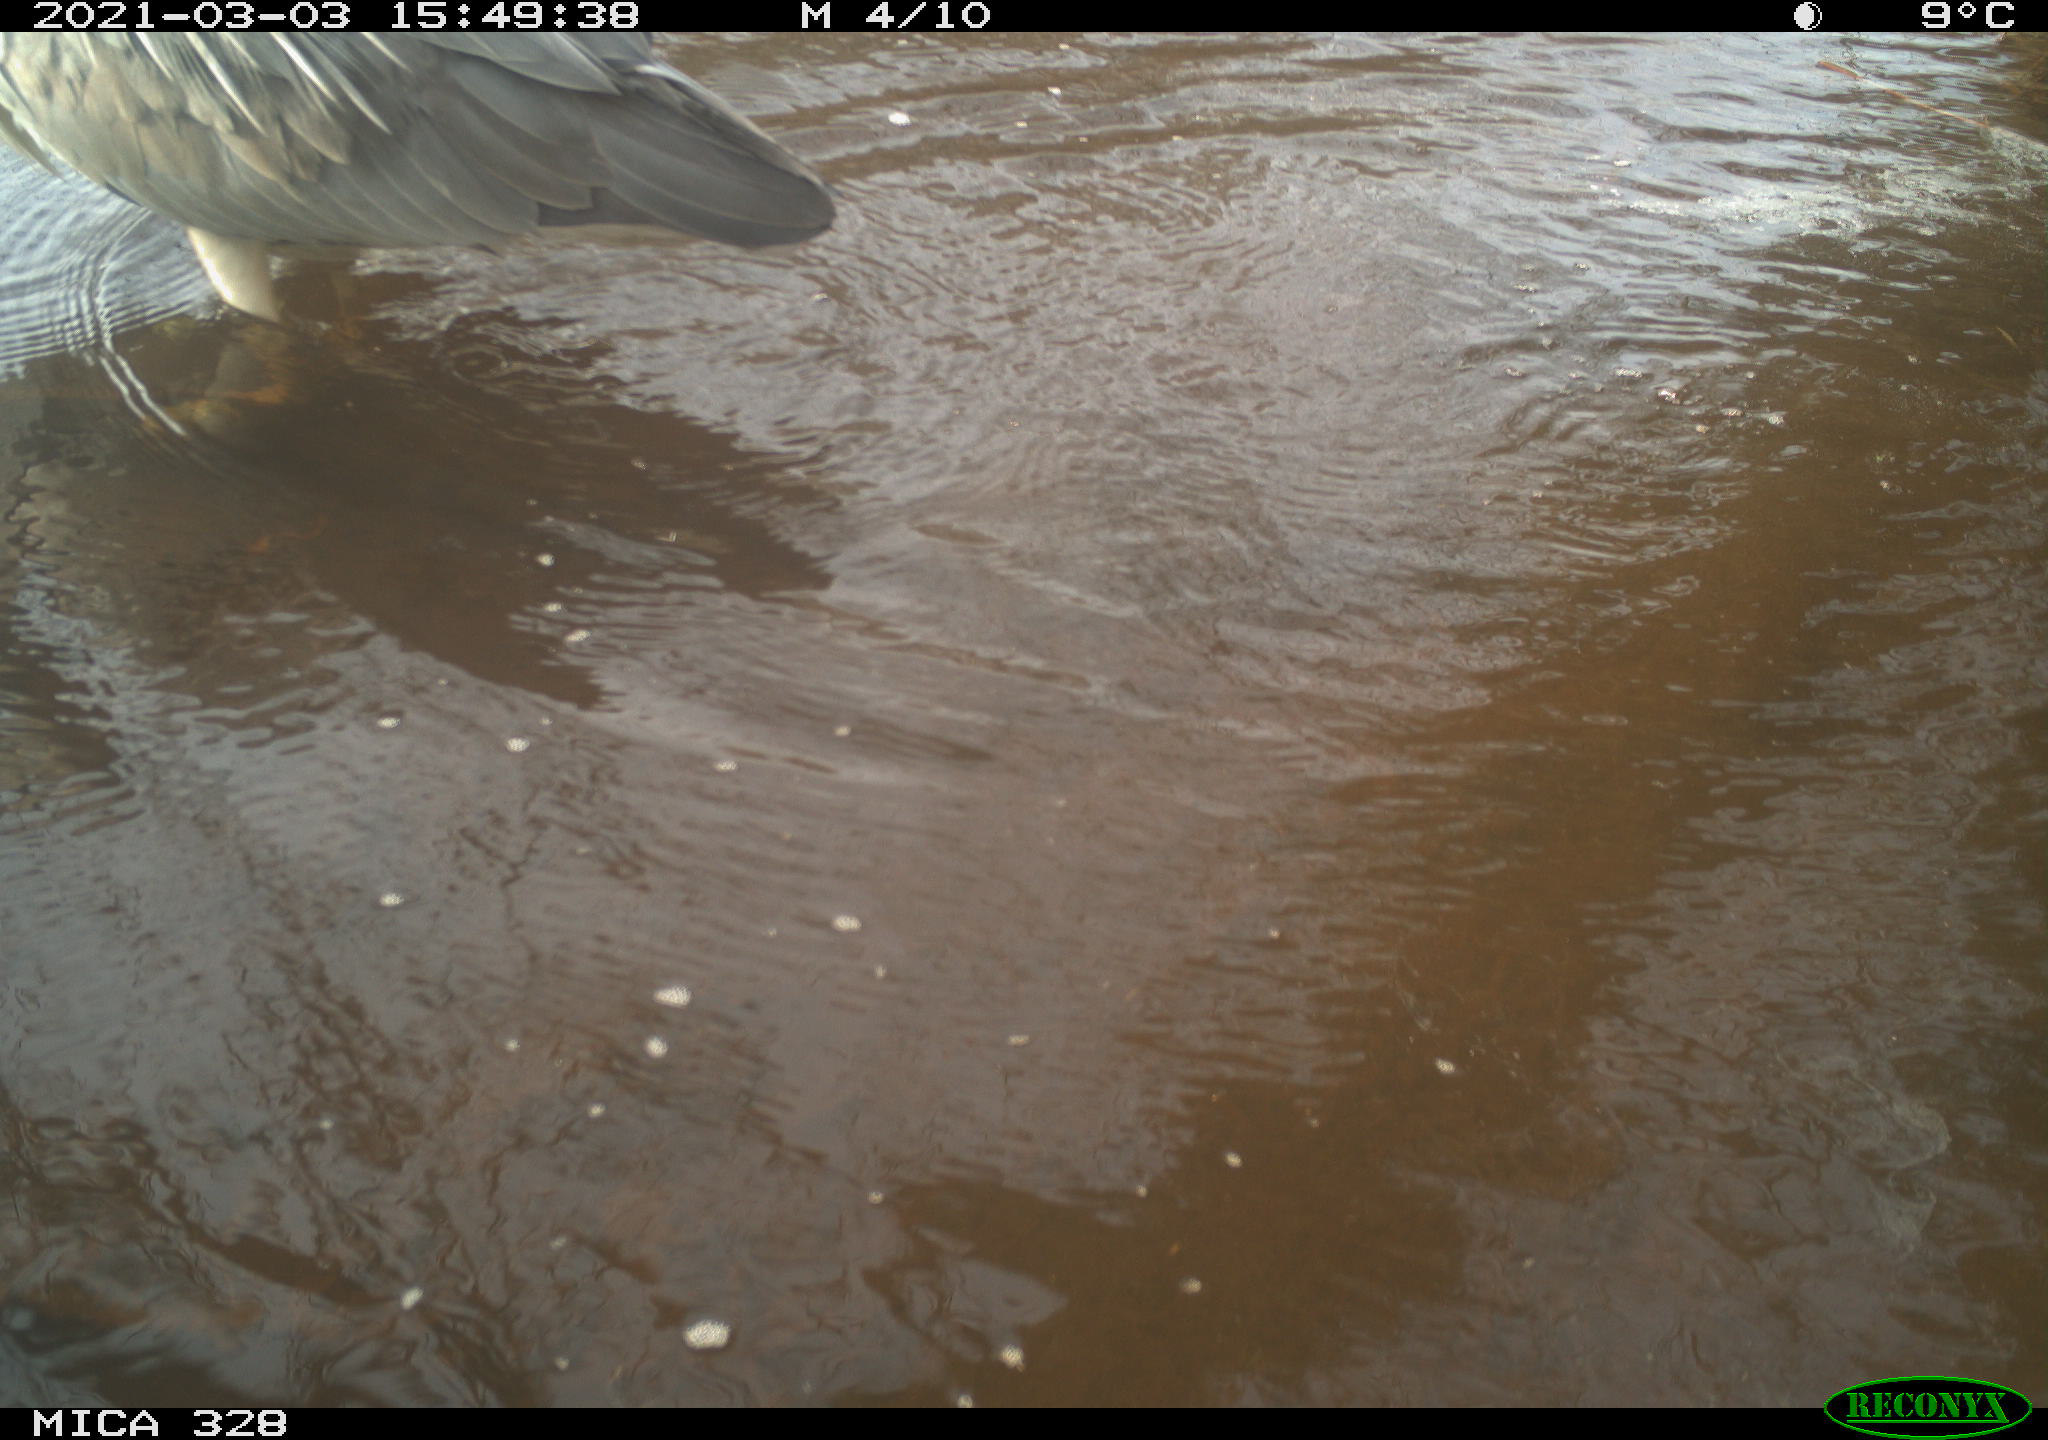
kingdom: Animalia
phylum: Chordata
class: Aves
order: Pelecaniformes
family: Ardeidae
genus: Ardea
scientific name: Ardea cinerea
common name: Grey heron
